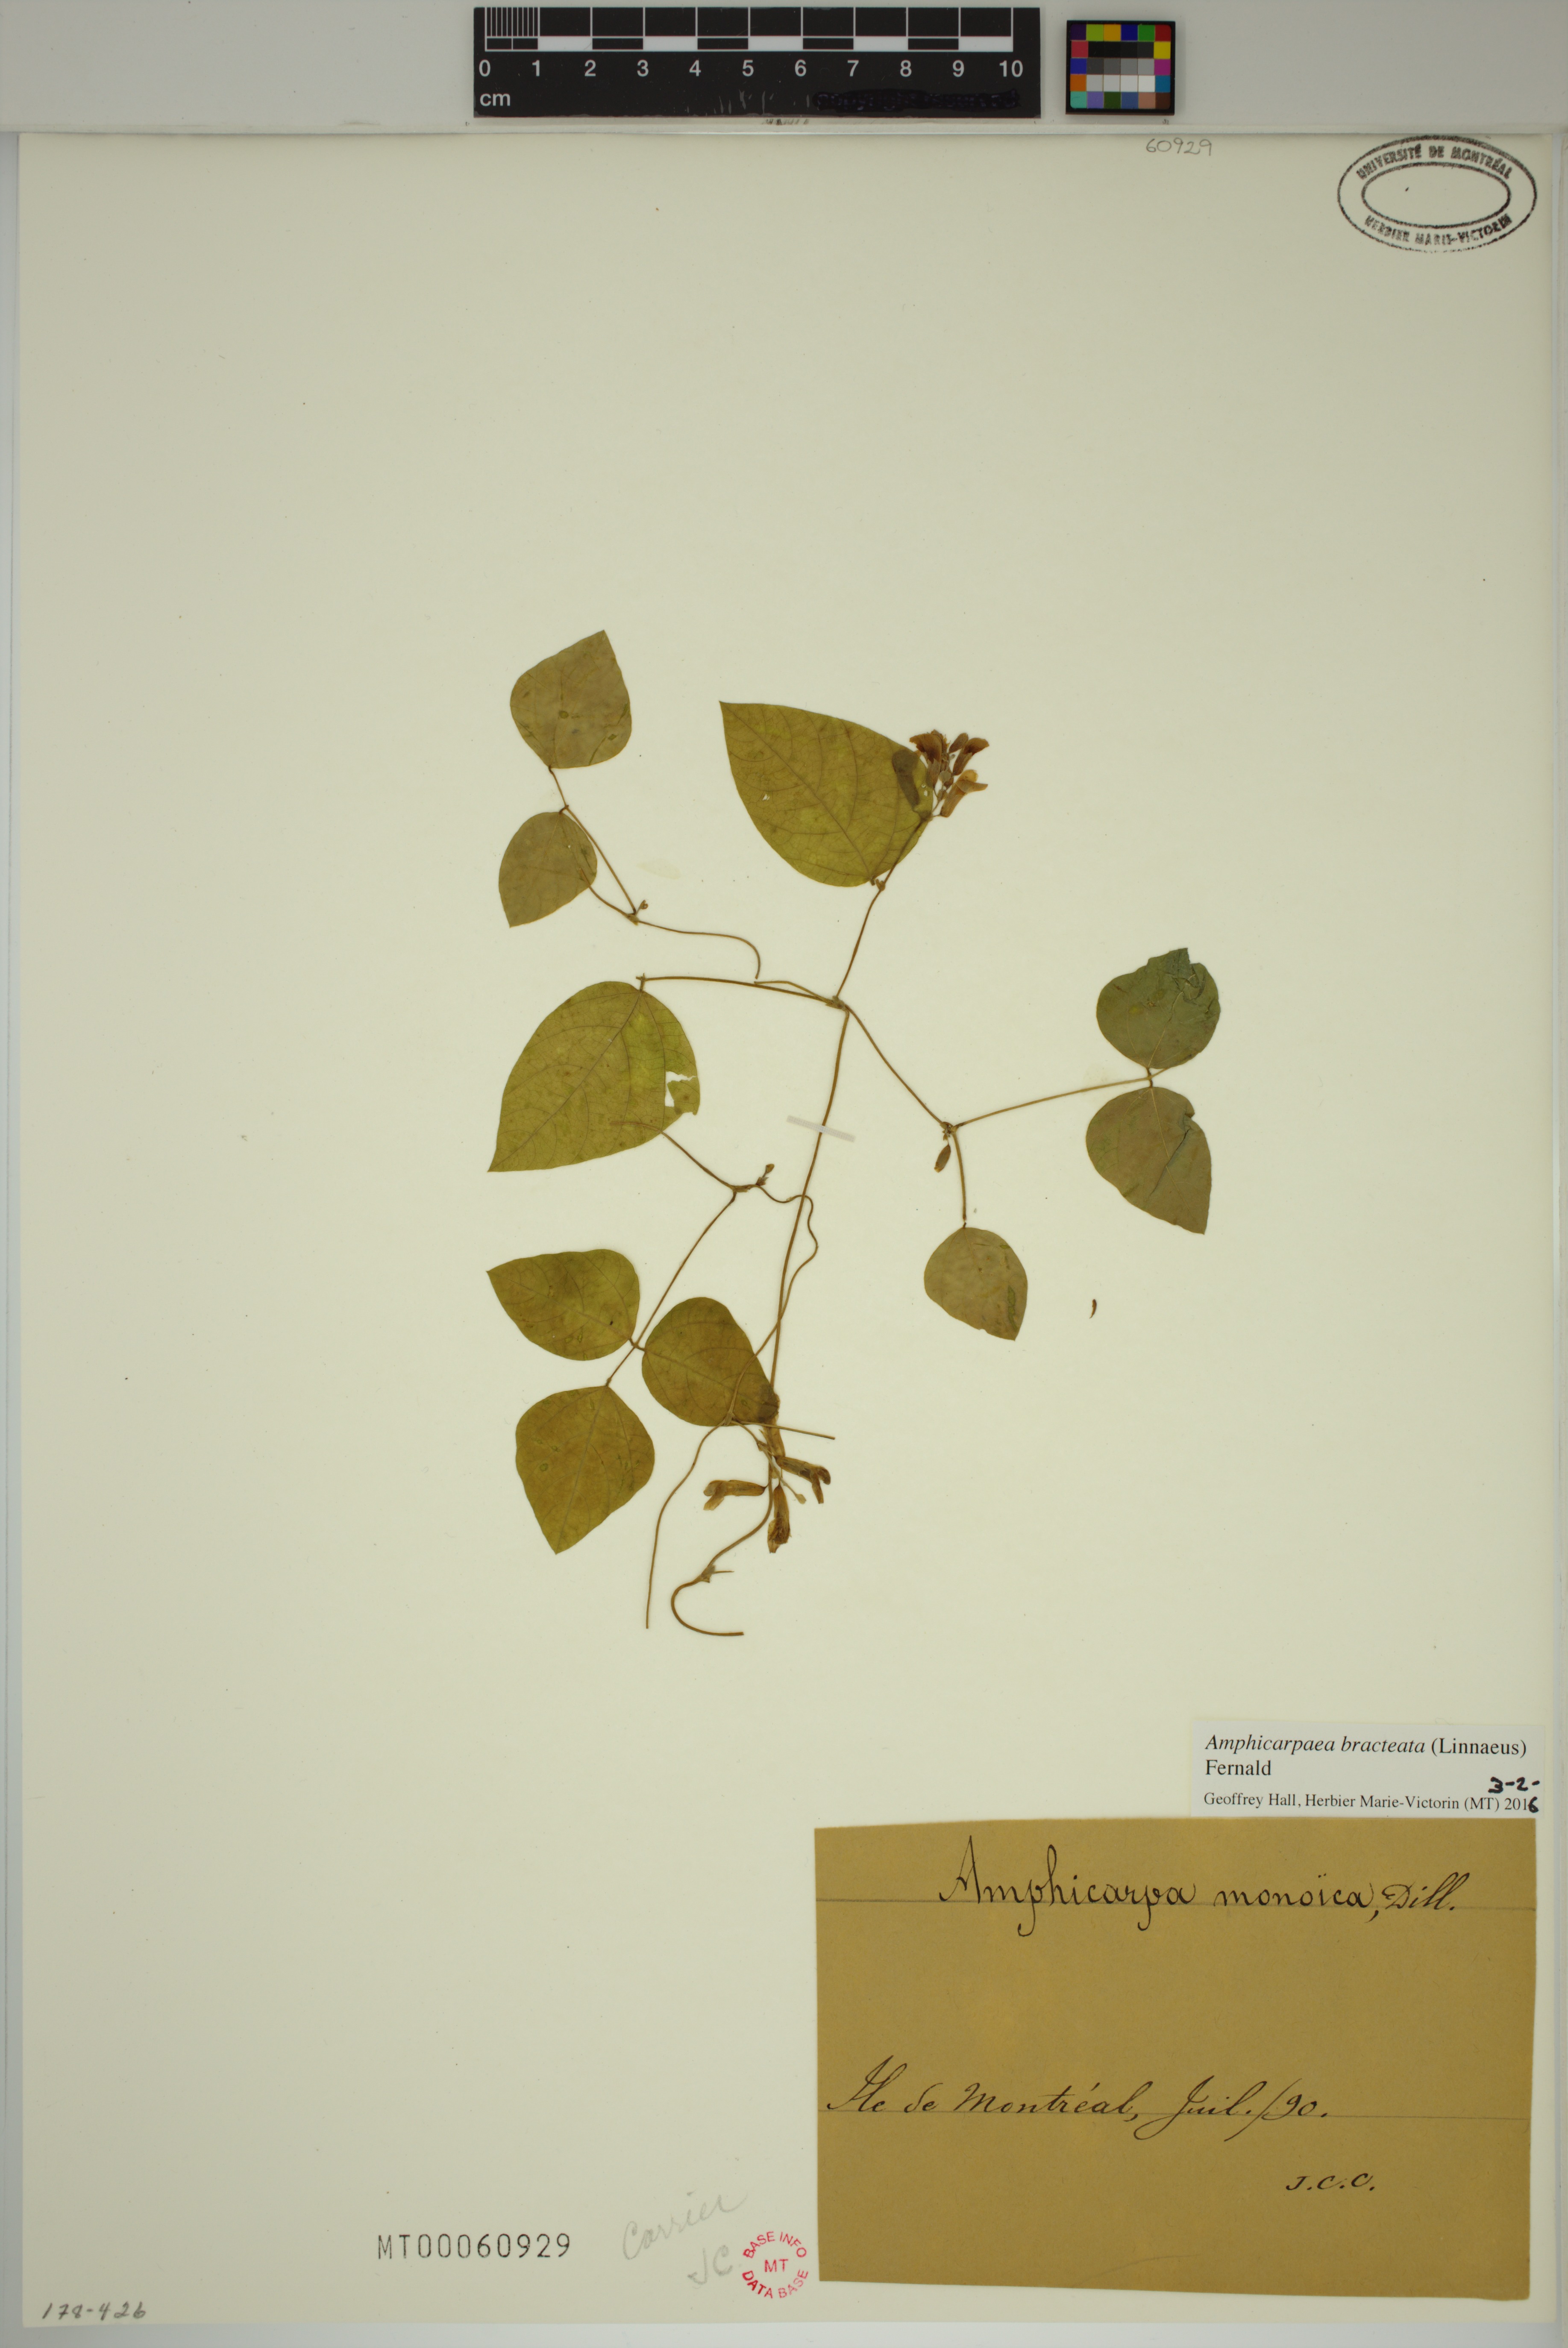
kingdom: Plantae
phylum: Tracheophyta
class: Magnoliopsida
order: Fabales
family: Fabaceae
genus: Amphicarpaea
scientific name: Amphicarpaea bracteata
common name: American hog peanut
